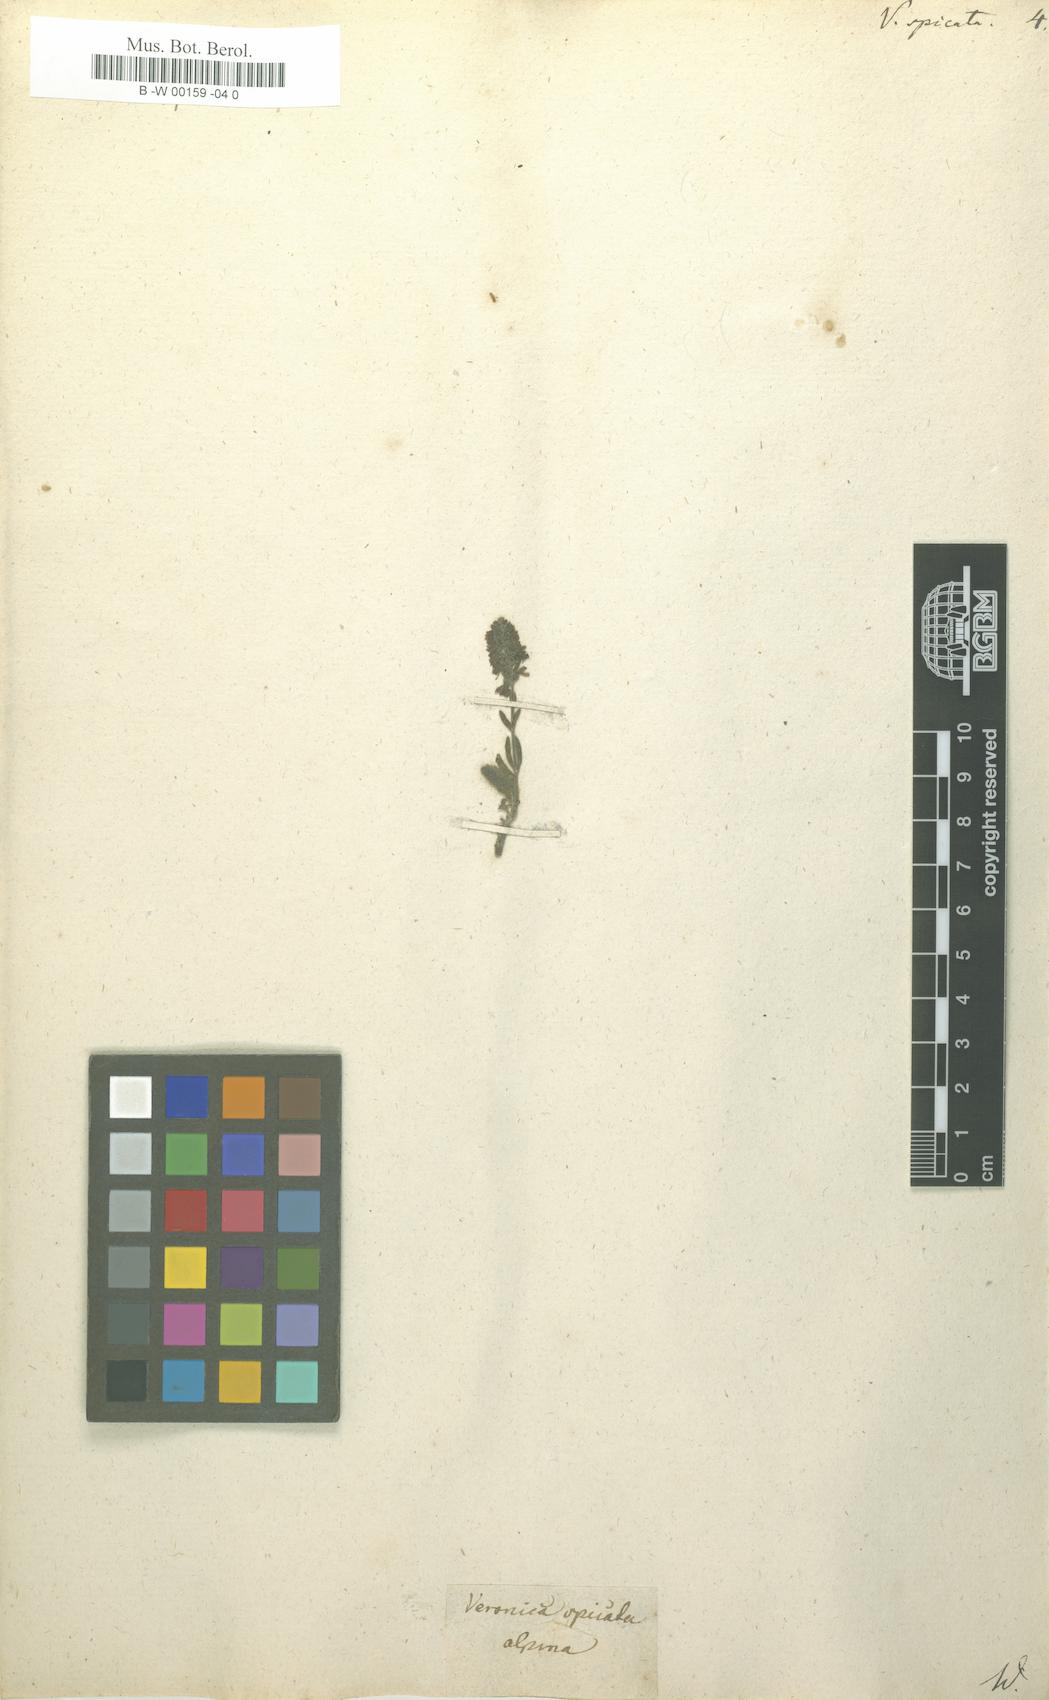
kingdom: Plantae
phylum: Tracheophyta
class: Magnoliopsida
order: Lamiales
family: Plantaginaceae
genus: Veronica
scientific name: Veronica spicata
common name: Spiked speedwell
